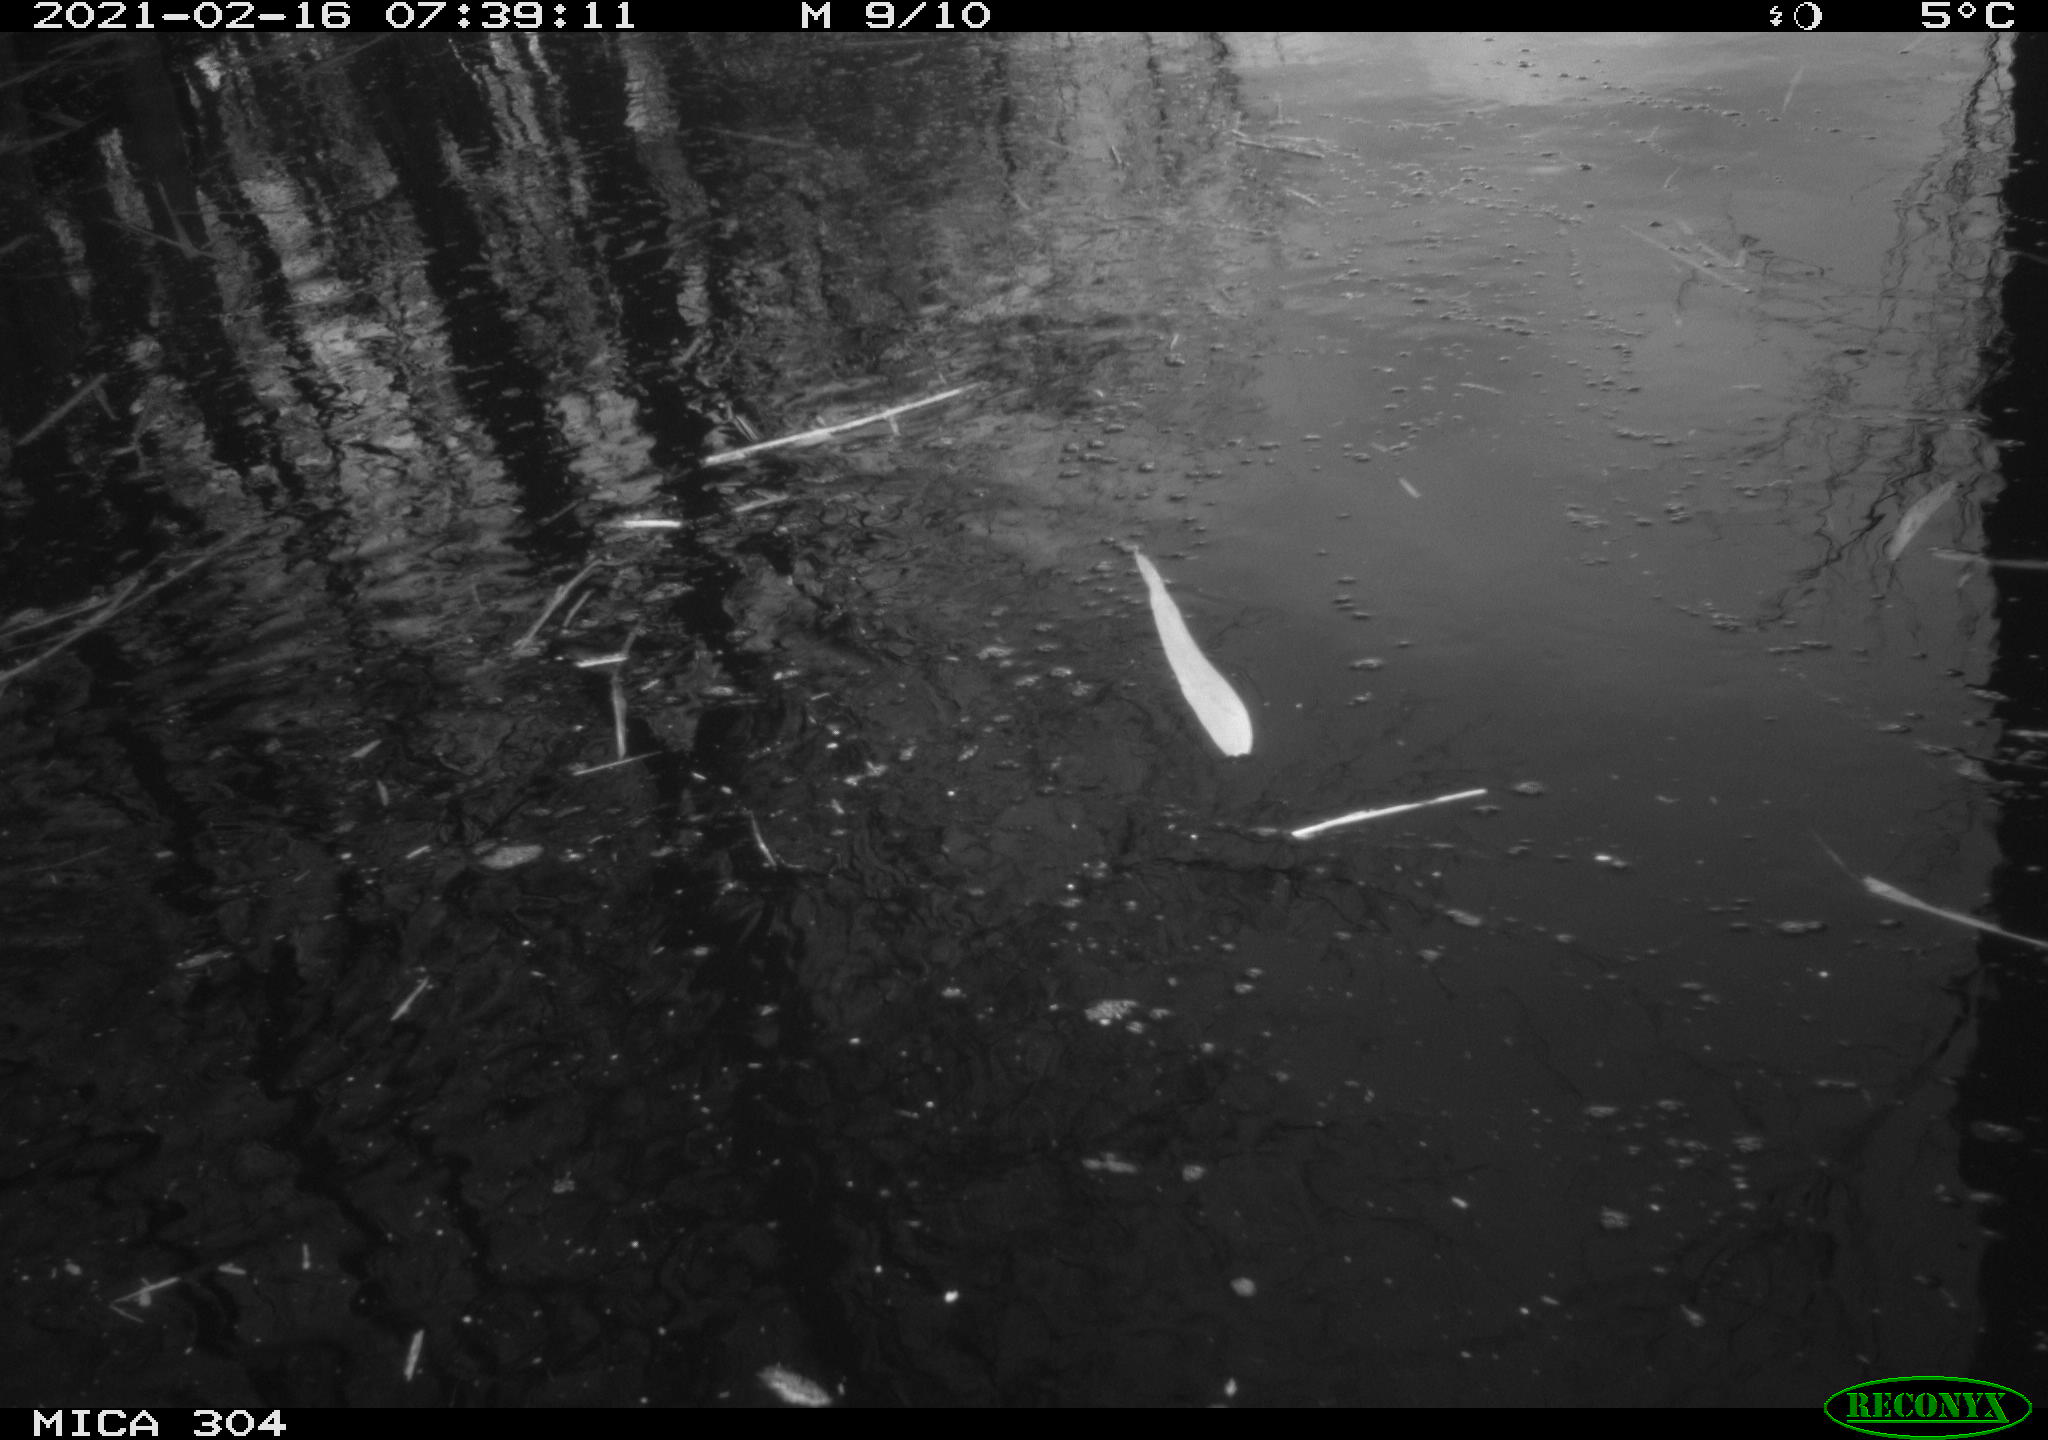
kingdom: Animalia
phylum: Chordata
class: Aves
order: Gruiformes
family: Rallidae
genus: Gallinula
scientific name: Gallinula chloropus
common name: Common moorhen
